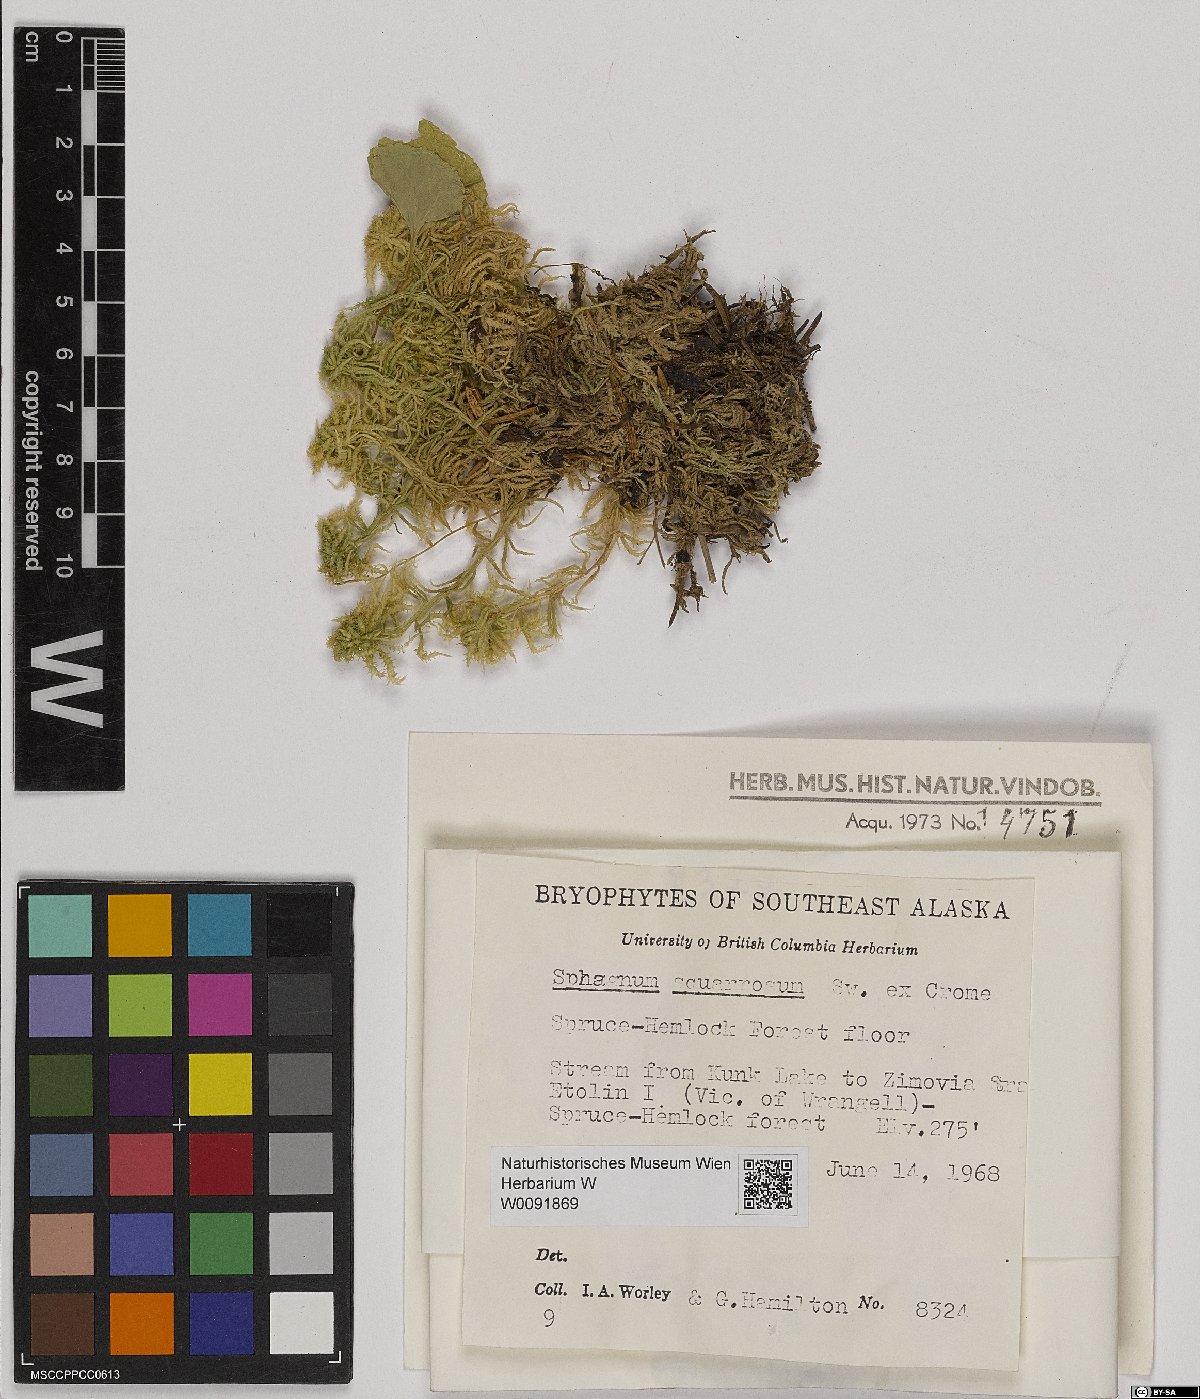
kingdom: Plantae
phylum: Bryophyta
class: Sphagnopsida
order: Sphagnales
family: Sphagnaceae
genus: Sphagnum
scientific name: Sphagnum squarrosum
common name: Shaggy peat moss
